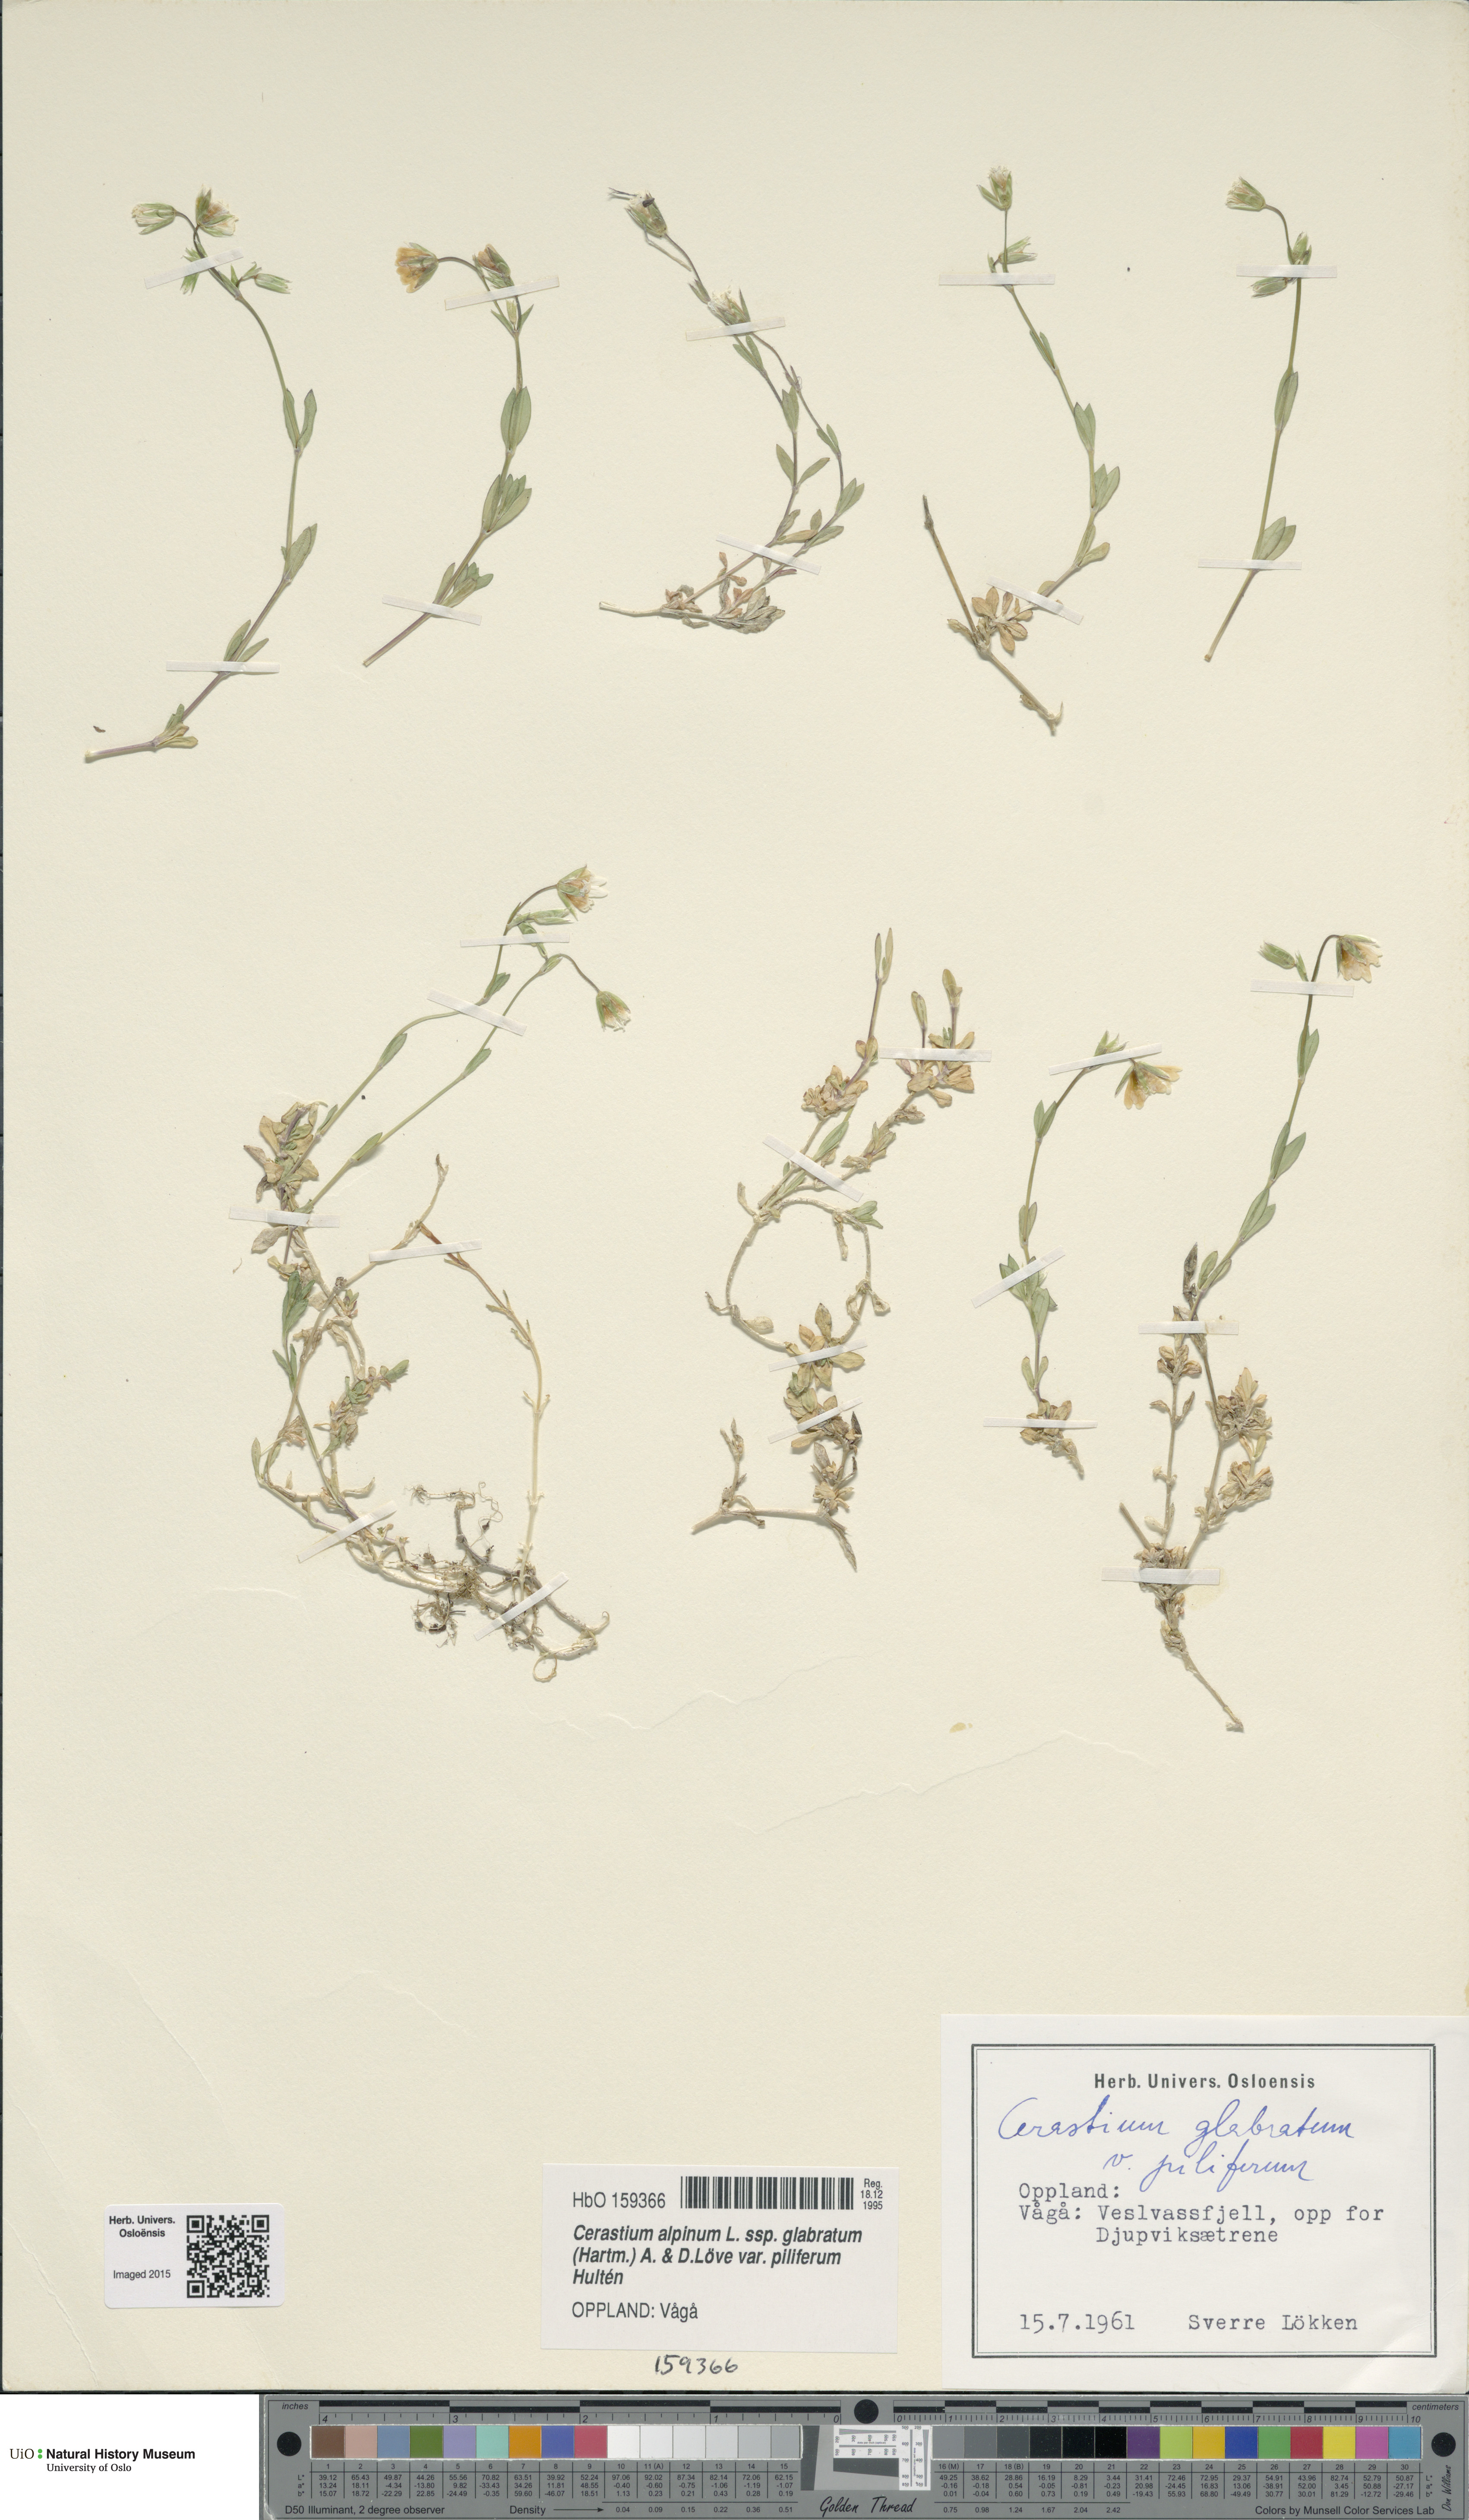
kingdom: Plantae
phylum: Tracheophyta
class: Magnoliopsida
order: Caryophyllales
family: Caryophyllaceae
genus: Cerastium
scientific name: Cerastium alpinum
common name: Alpine mouse-ear
